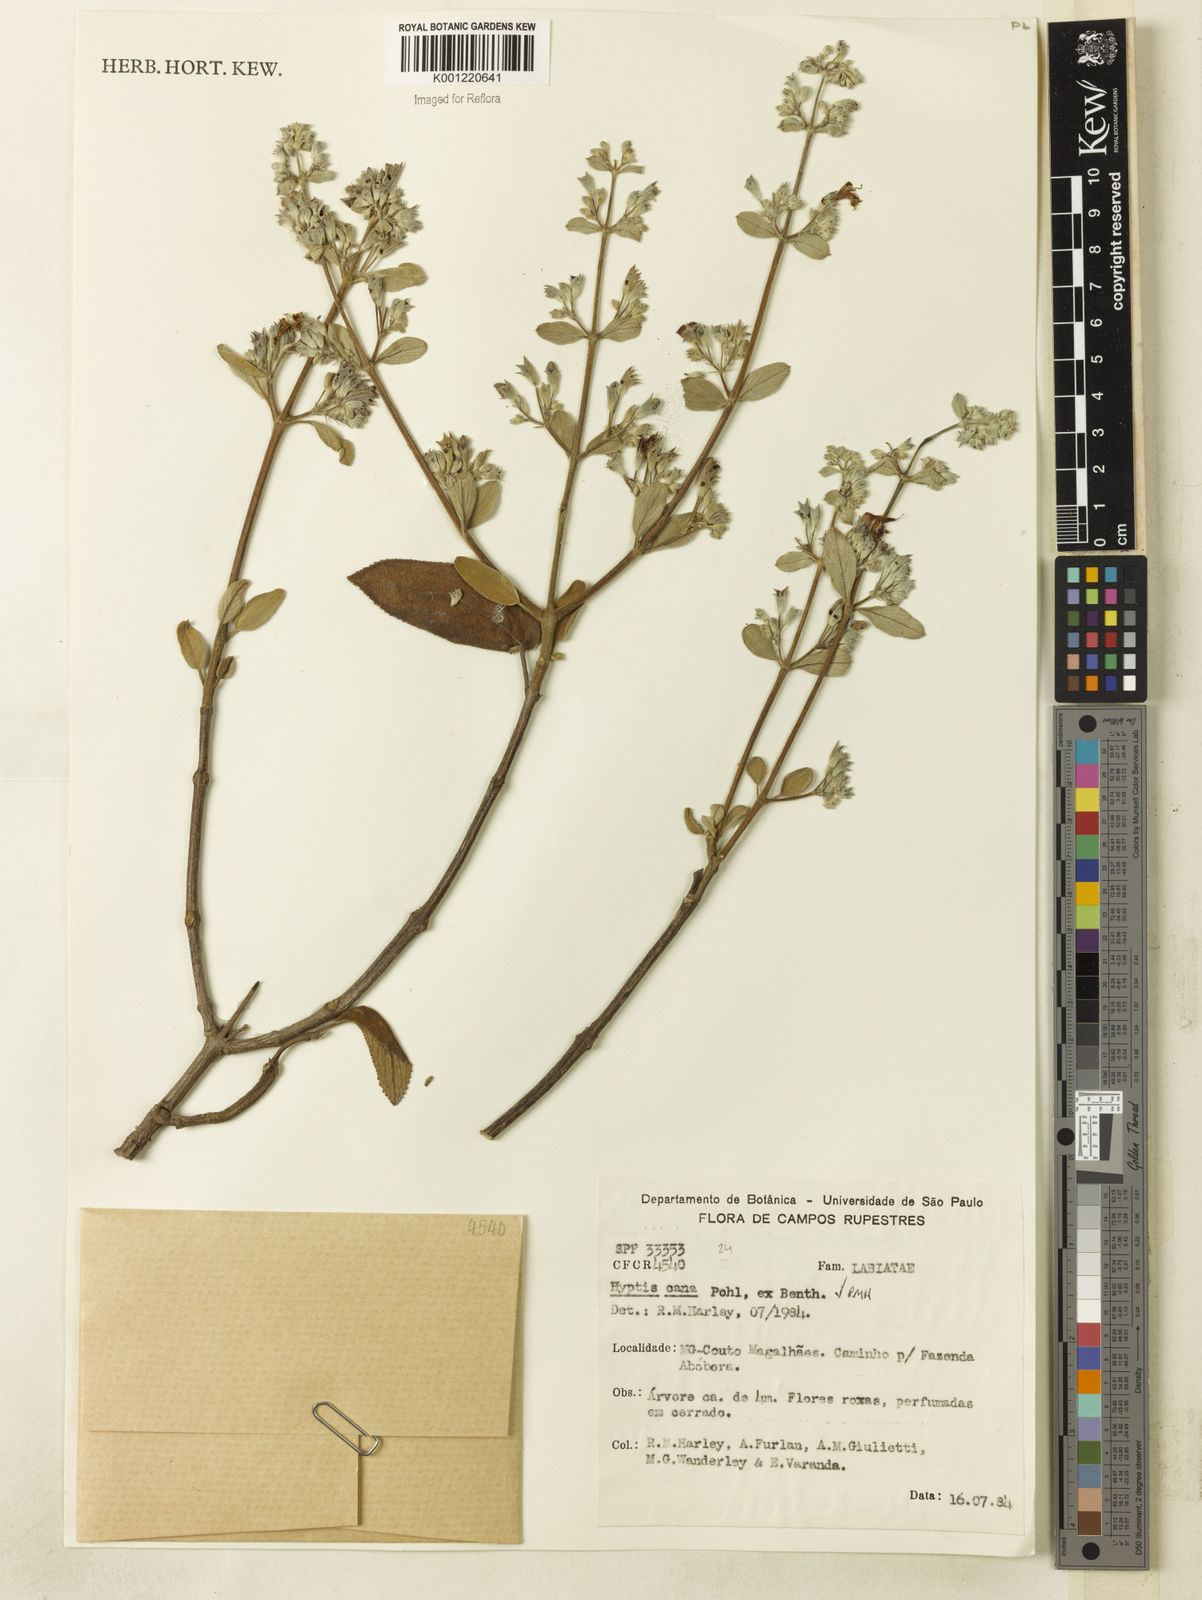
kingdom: Plantae
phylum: Tracheophyta
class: Magnoliopsida
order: Lamiales
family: Lamiaceae
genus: Hyptidendron
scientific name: Hyptidendron canum
